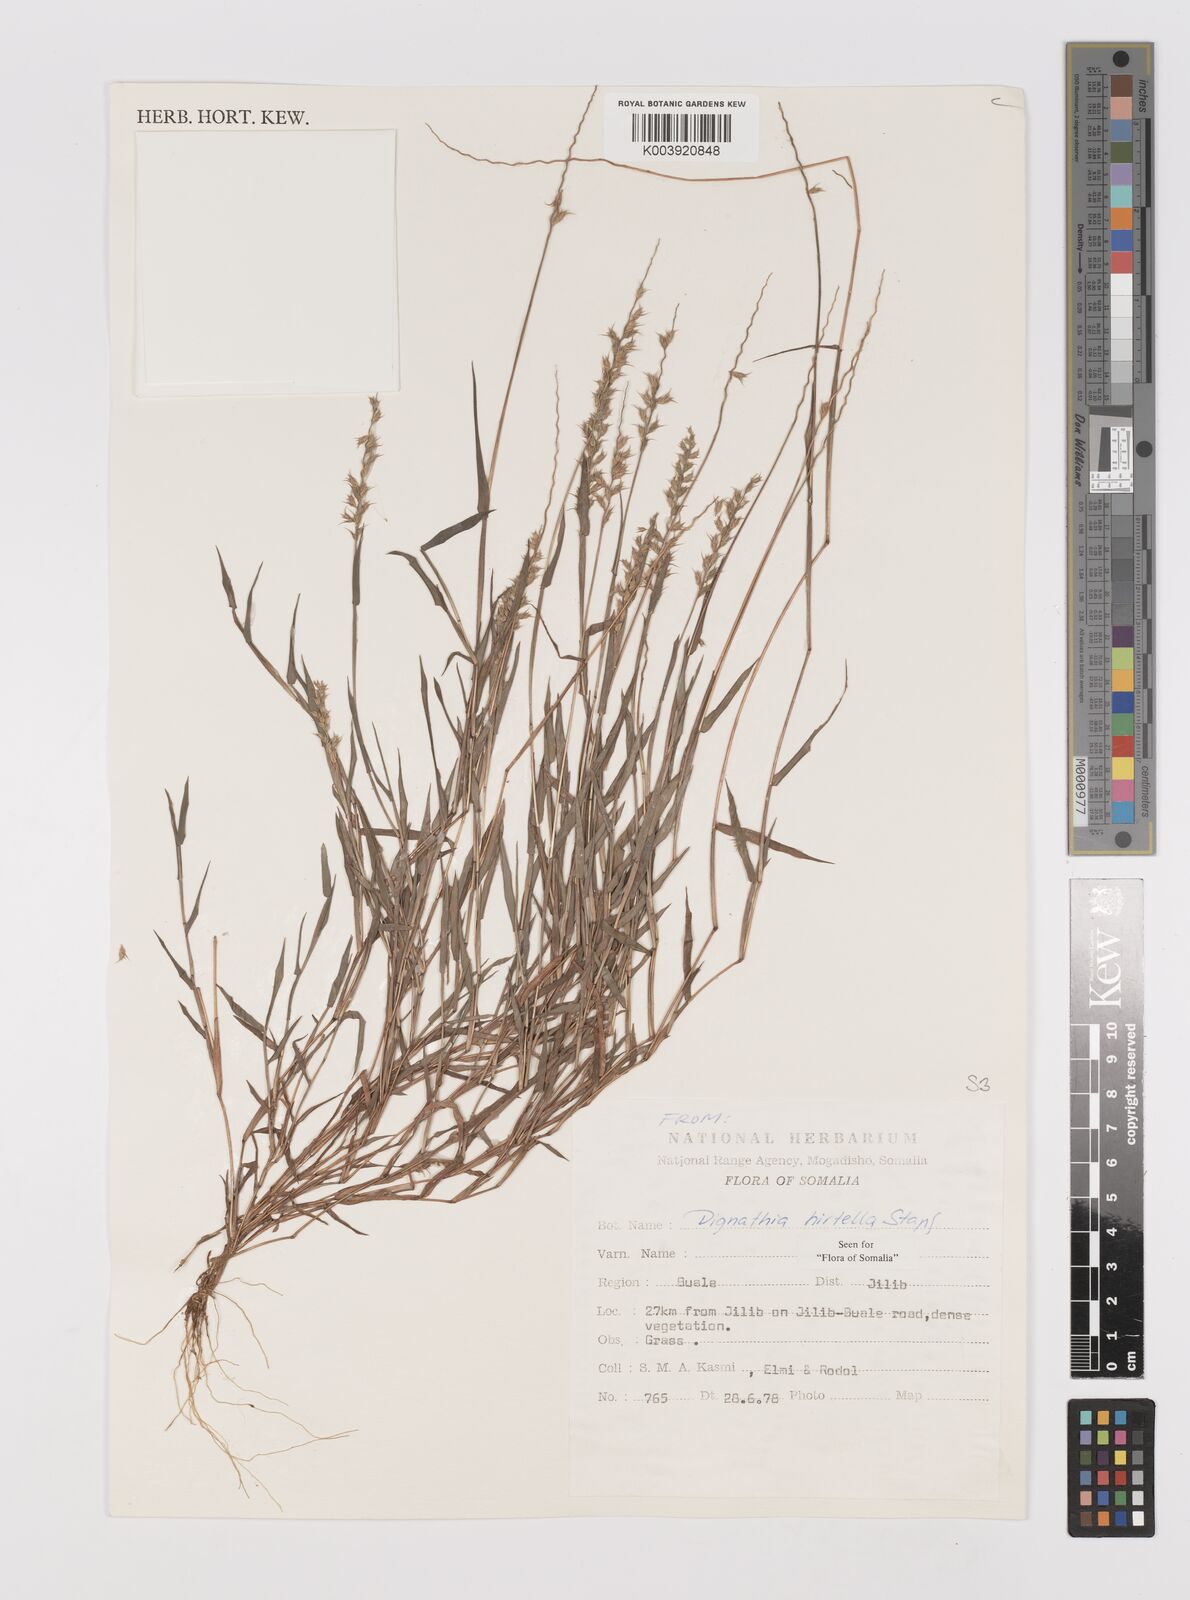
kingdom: Plantae
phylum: Tracheophyta
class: Liliopsida
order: Poales
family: Poaceae
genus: Dignathia
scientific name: Dignathia hirtella
